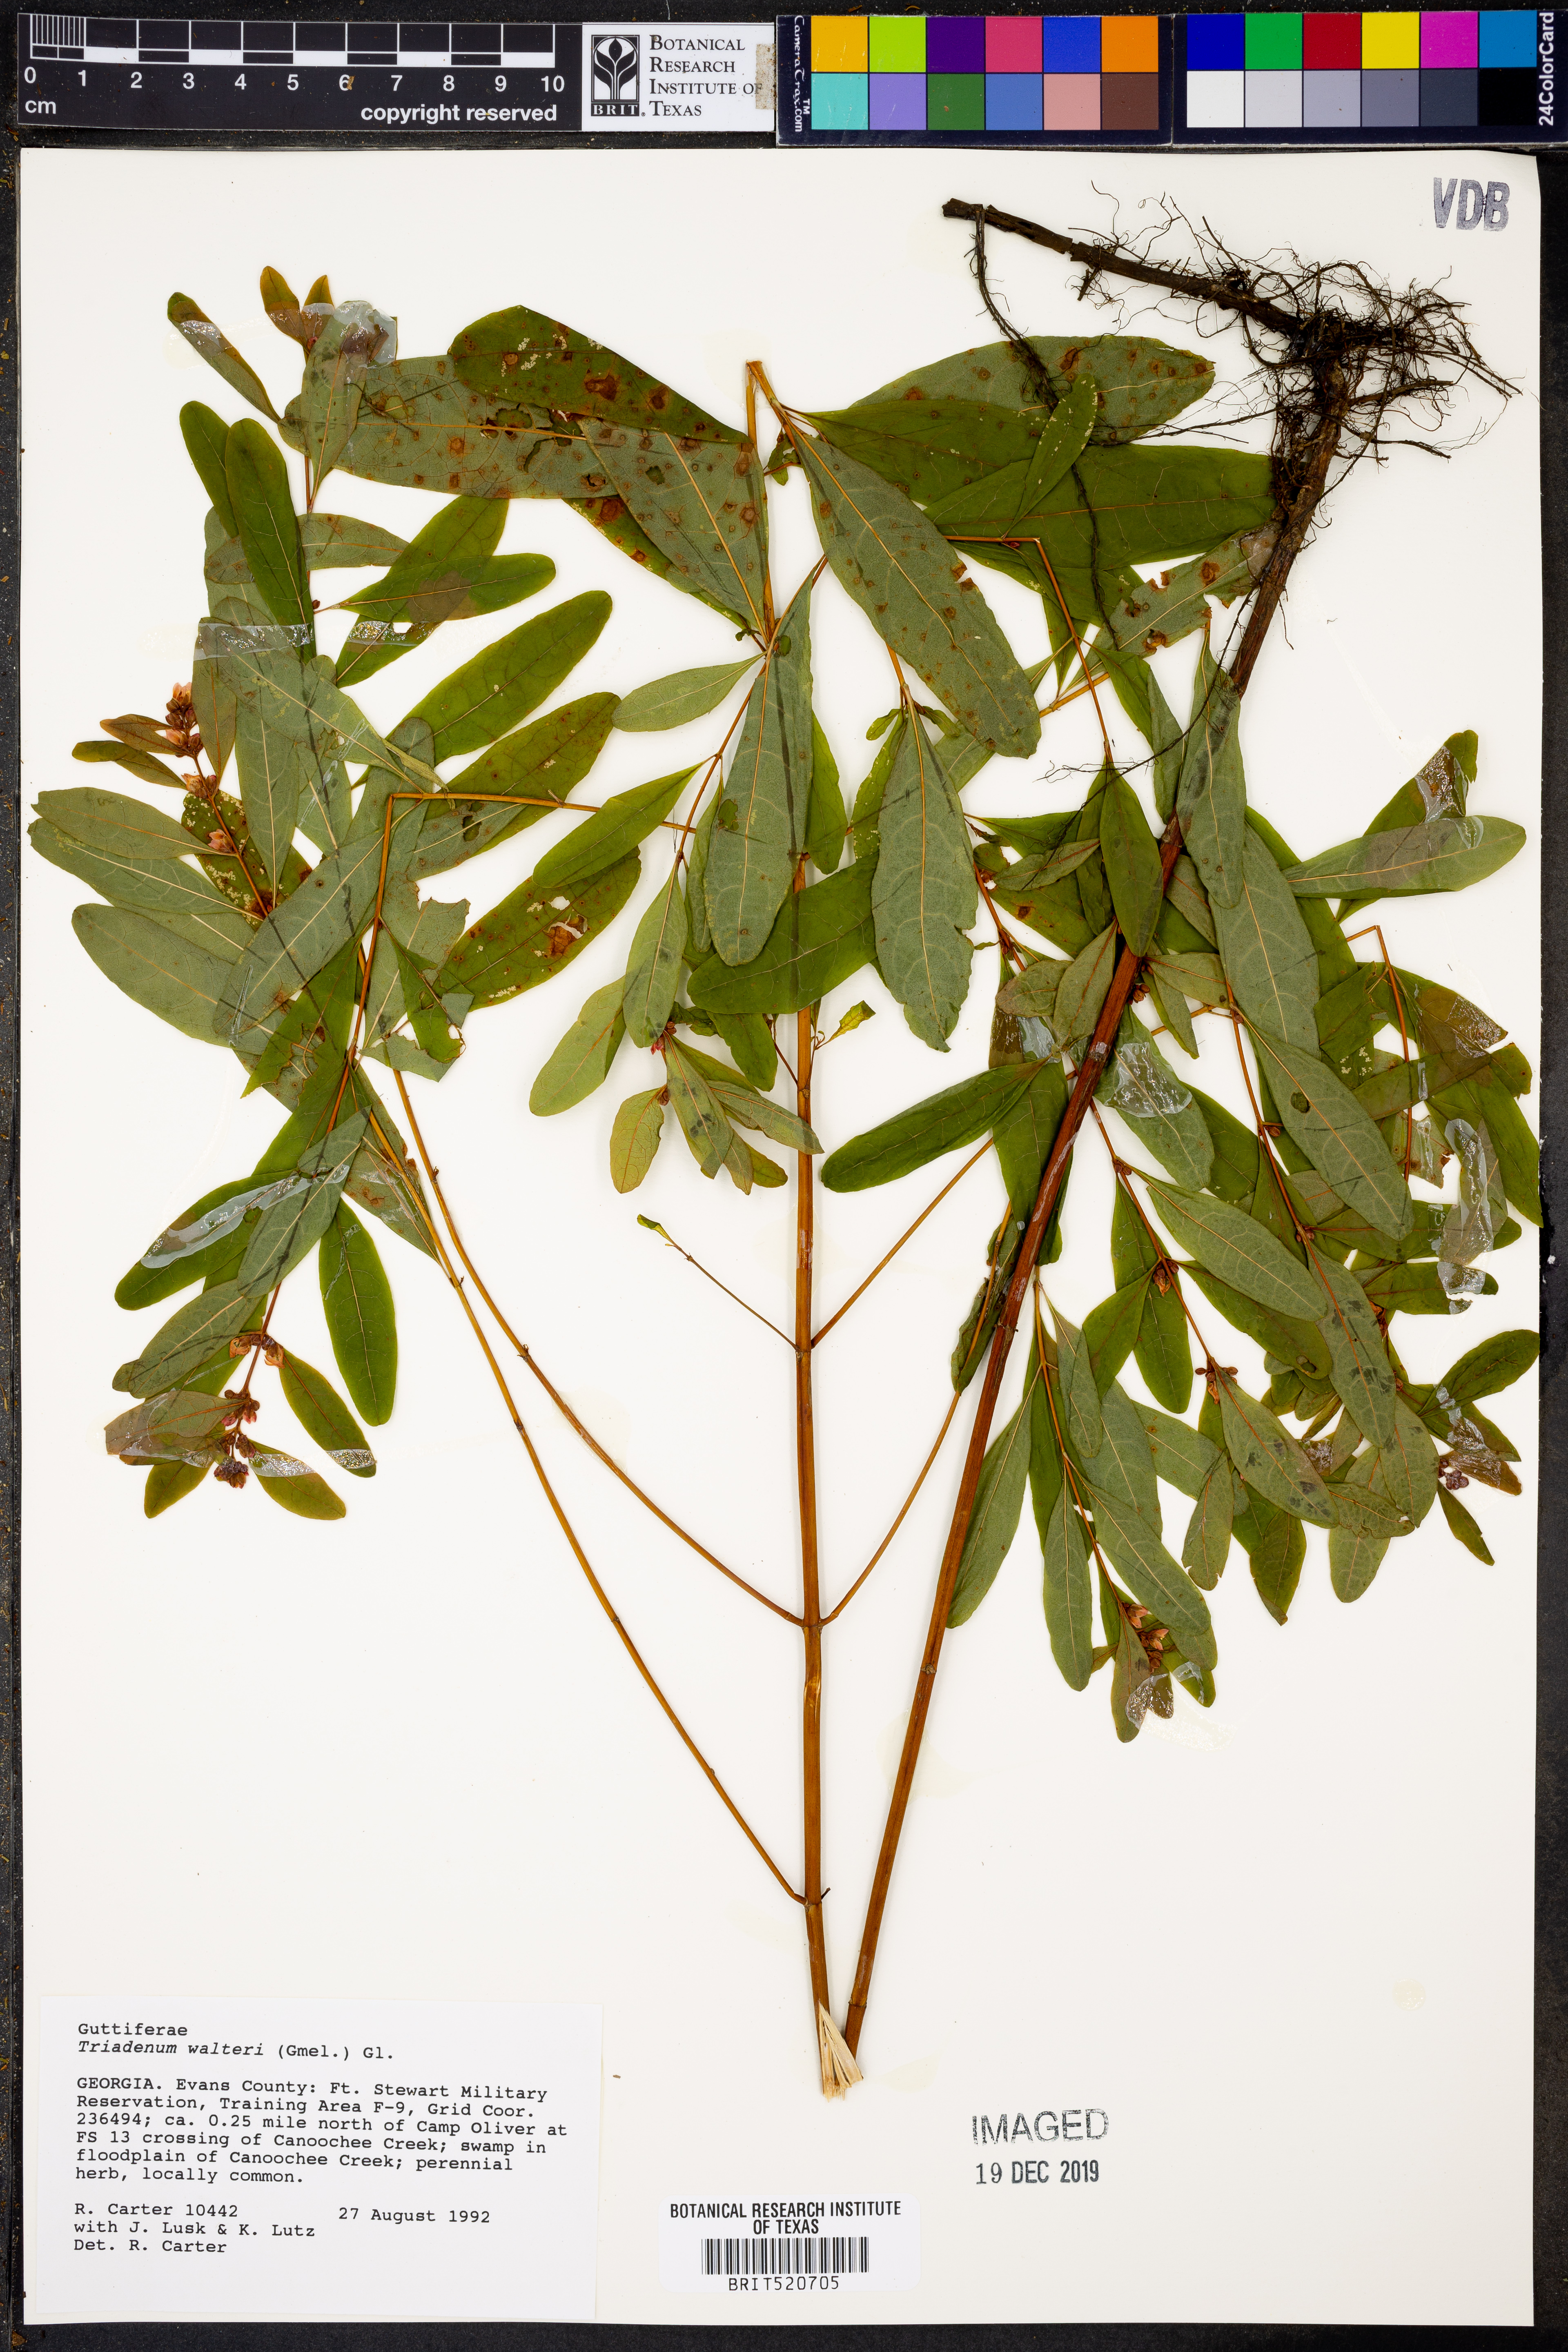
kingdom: Plantae
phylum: Tracheophyta
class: Magnoliopsida
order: Malpighiales
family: Hypericaceae
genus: Triadenum
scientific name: Triadenum walteri
